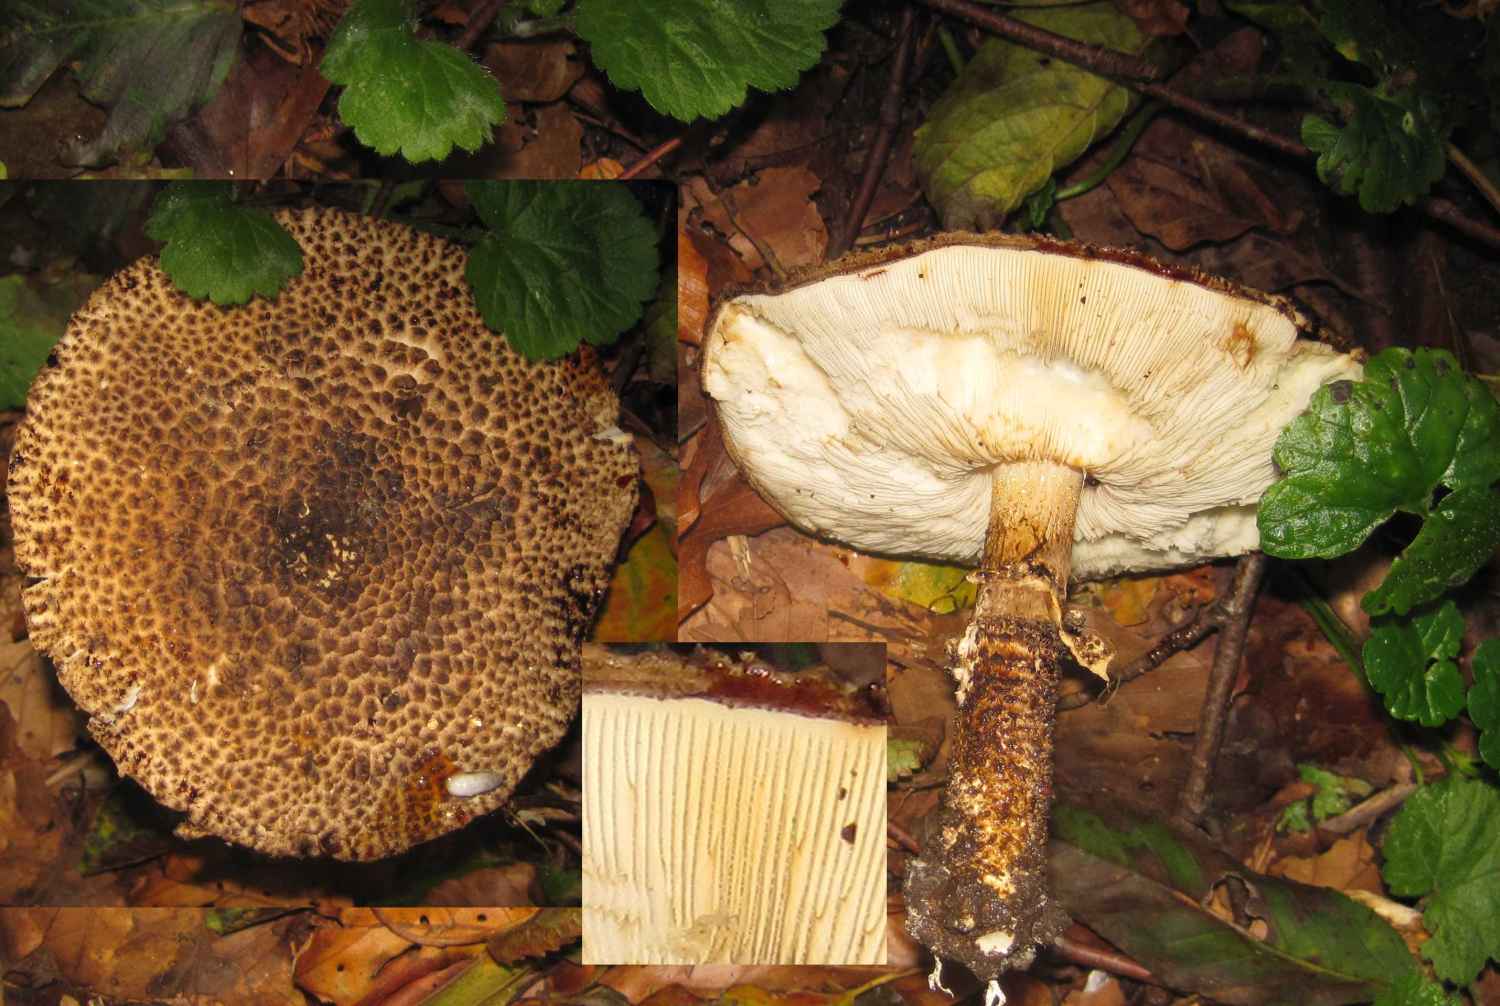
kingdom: Fungi
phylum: Basidiomycota
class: Agaricomycetes
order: Agaricales
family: Agaricaceae
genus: Echinoderma
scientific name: Echinoderma hystrix
